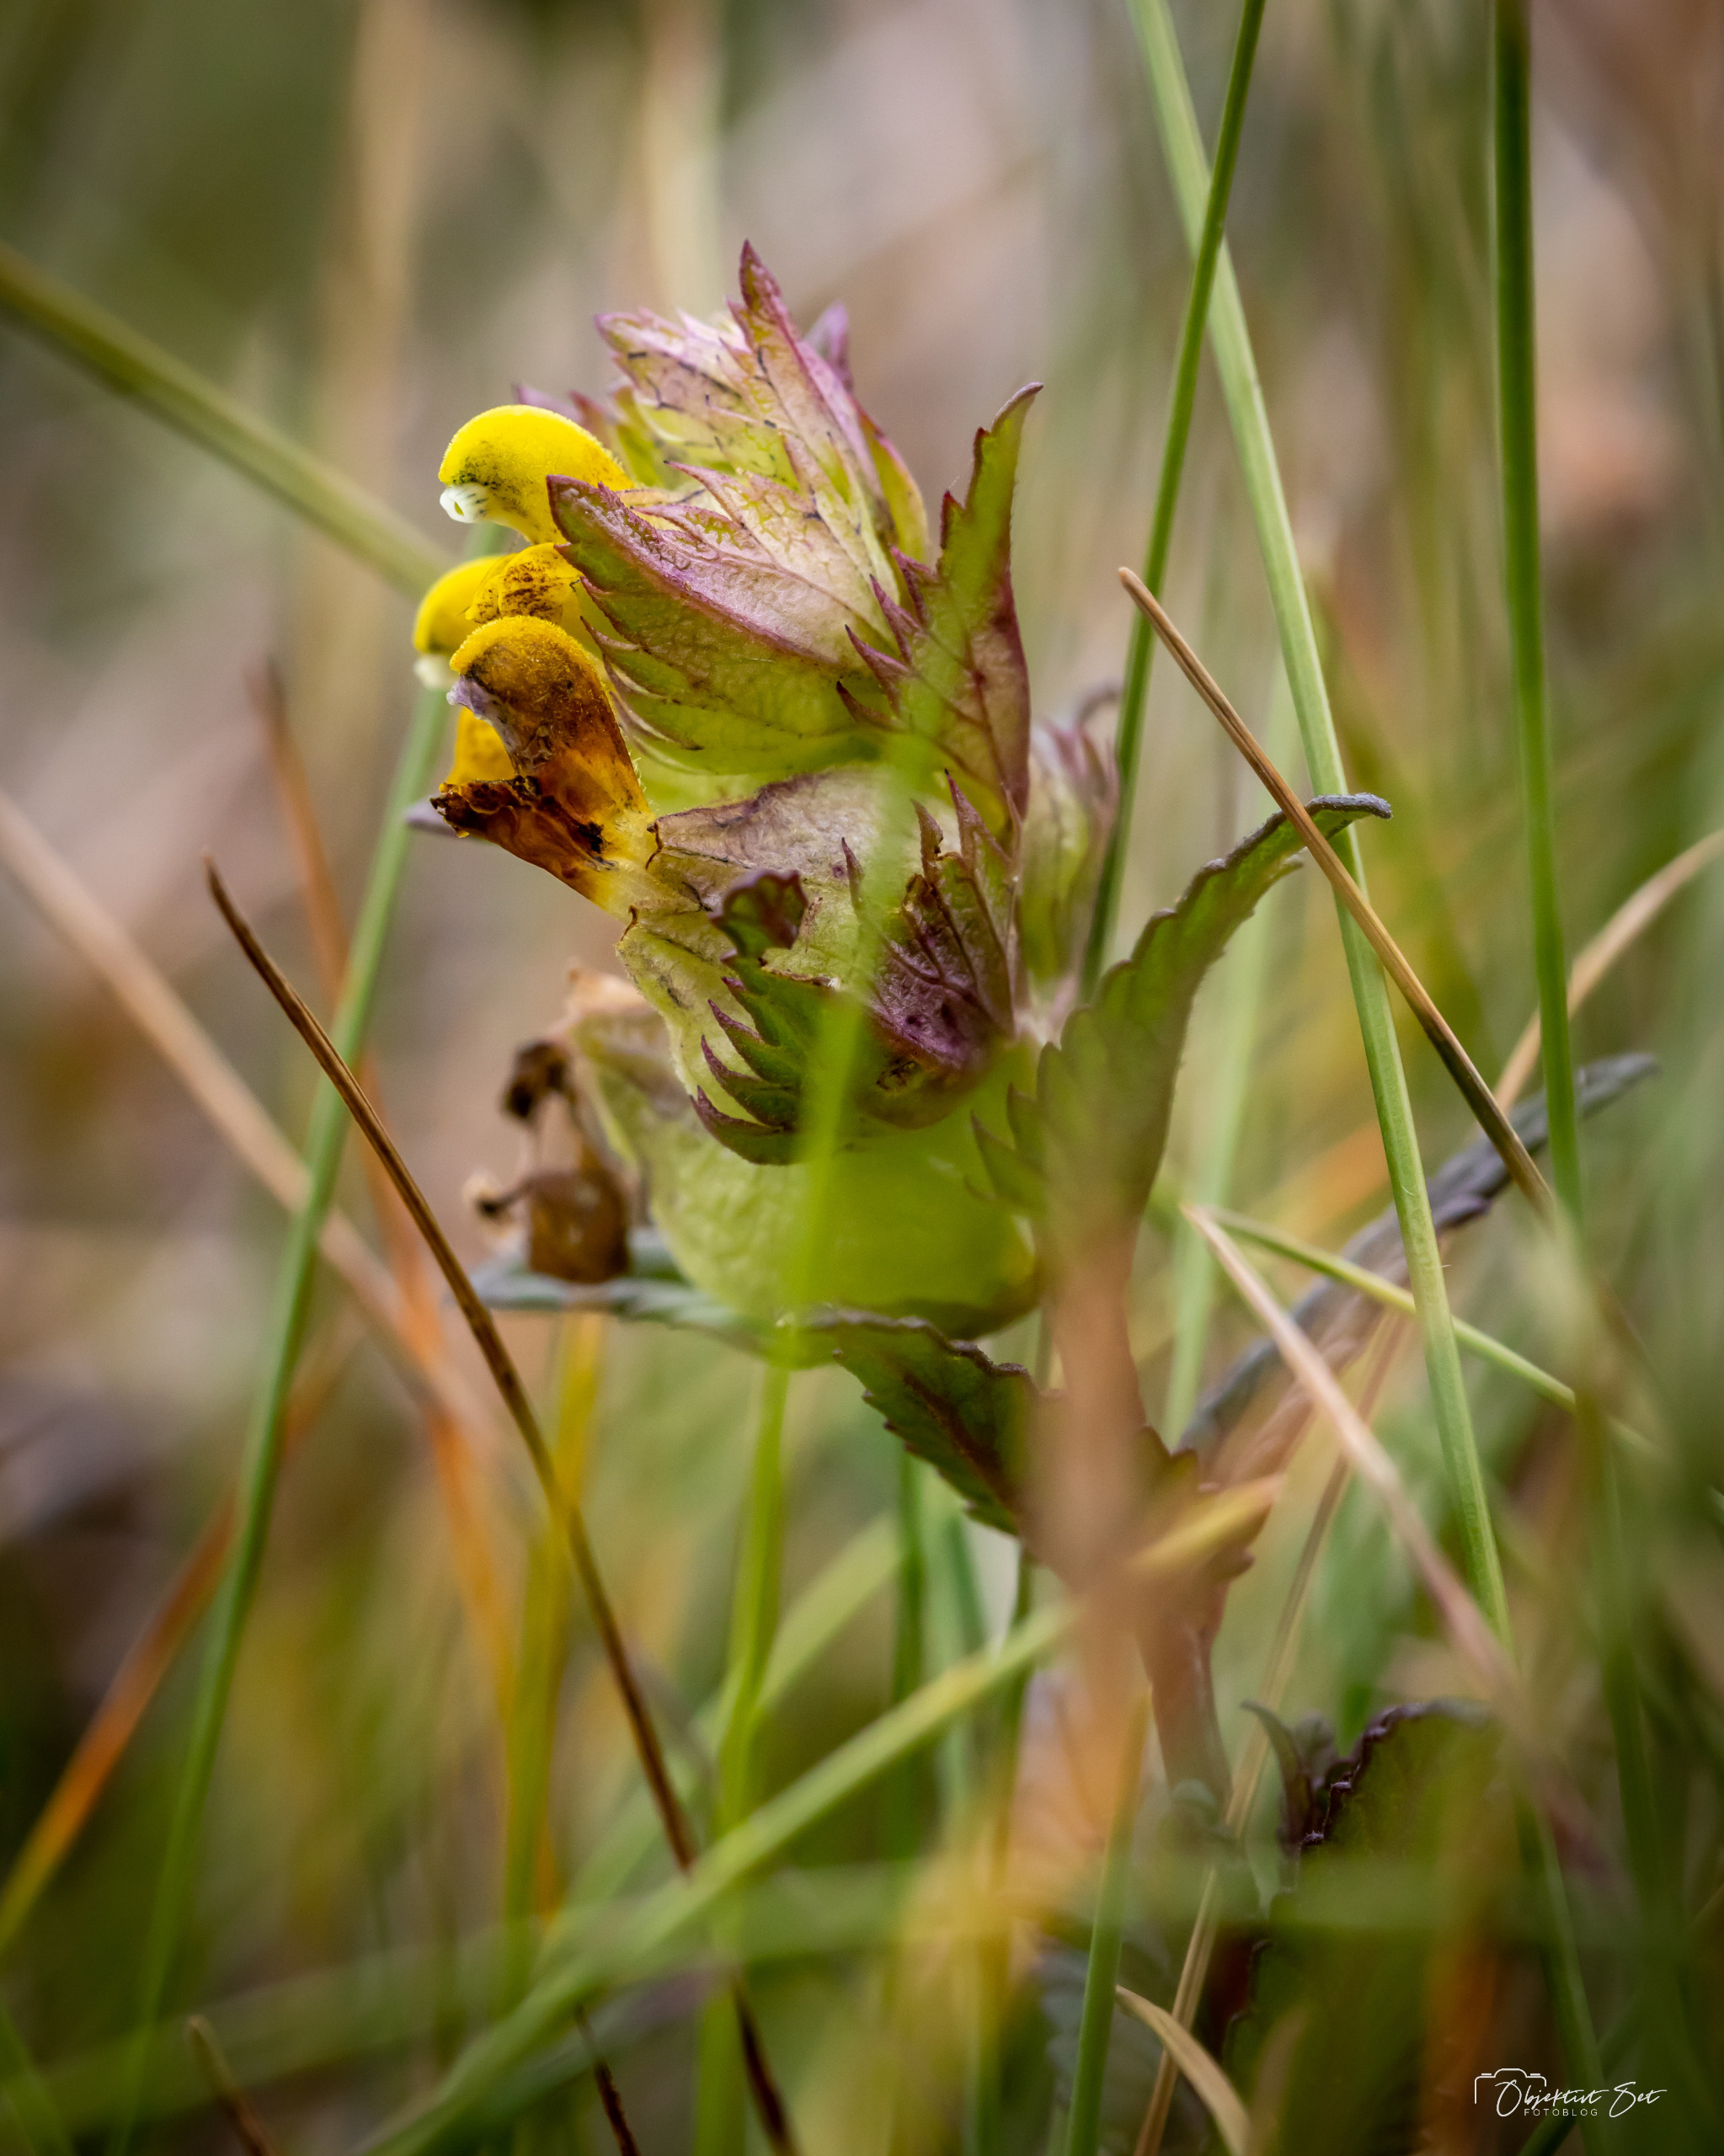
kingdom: Plantae
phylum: Tracheophyta
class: Magnoliopsida
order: Lamiales
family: Orobanchaceae
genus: Rhinanthus
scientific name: Rhinanthus minor
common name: Liden skjaller
